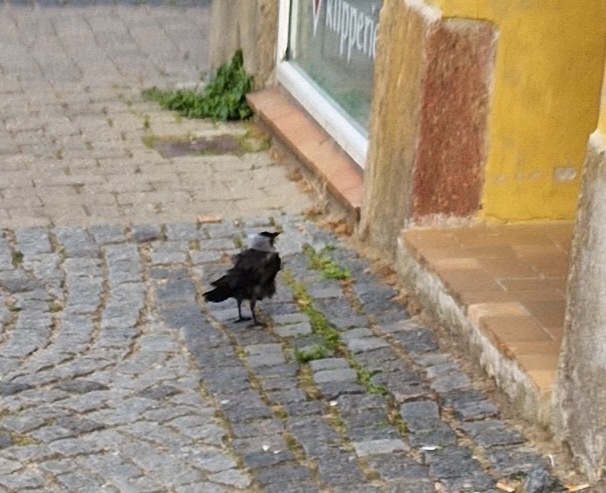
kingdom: Animalia
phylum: Chordata
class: Aves
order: Passeriformes
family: Corvidae
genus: Coloeus
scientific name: Coloeus monedula
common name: Allike
